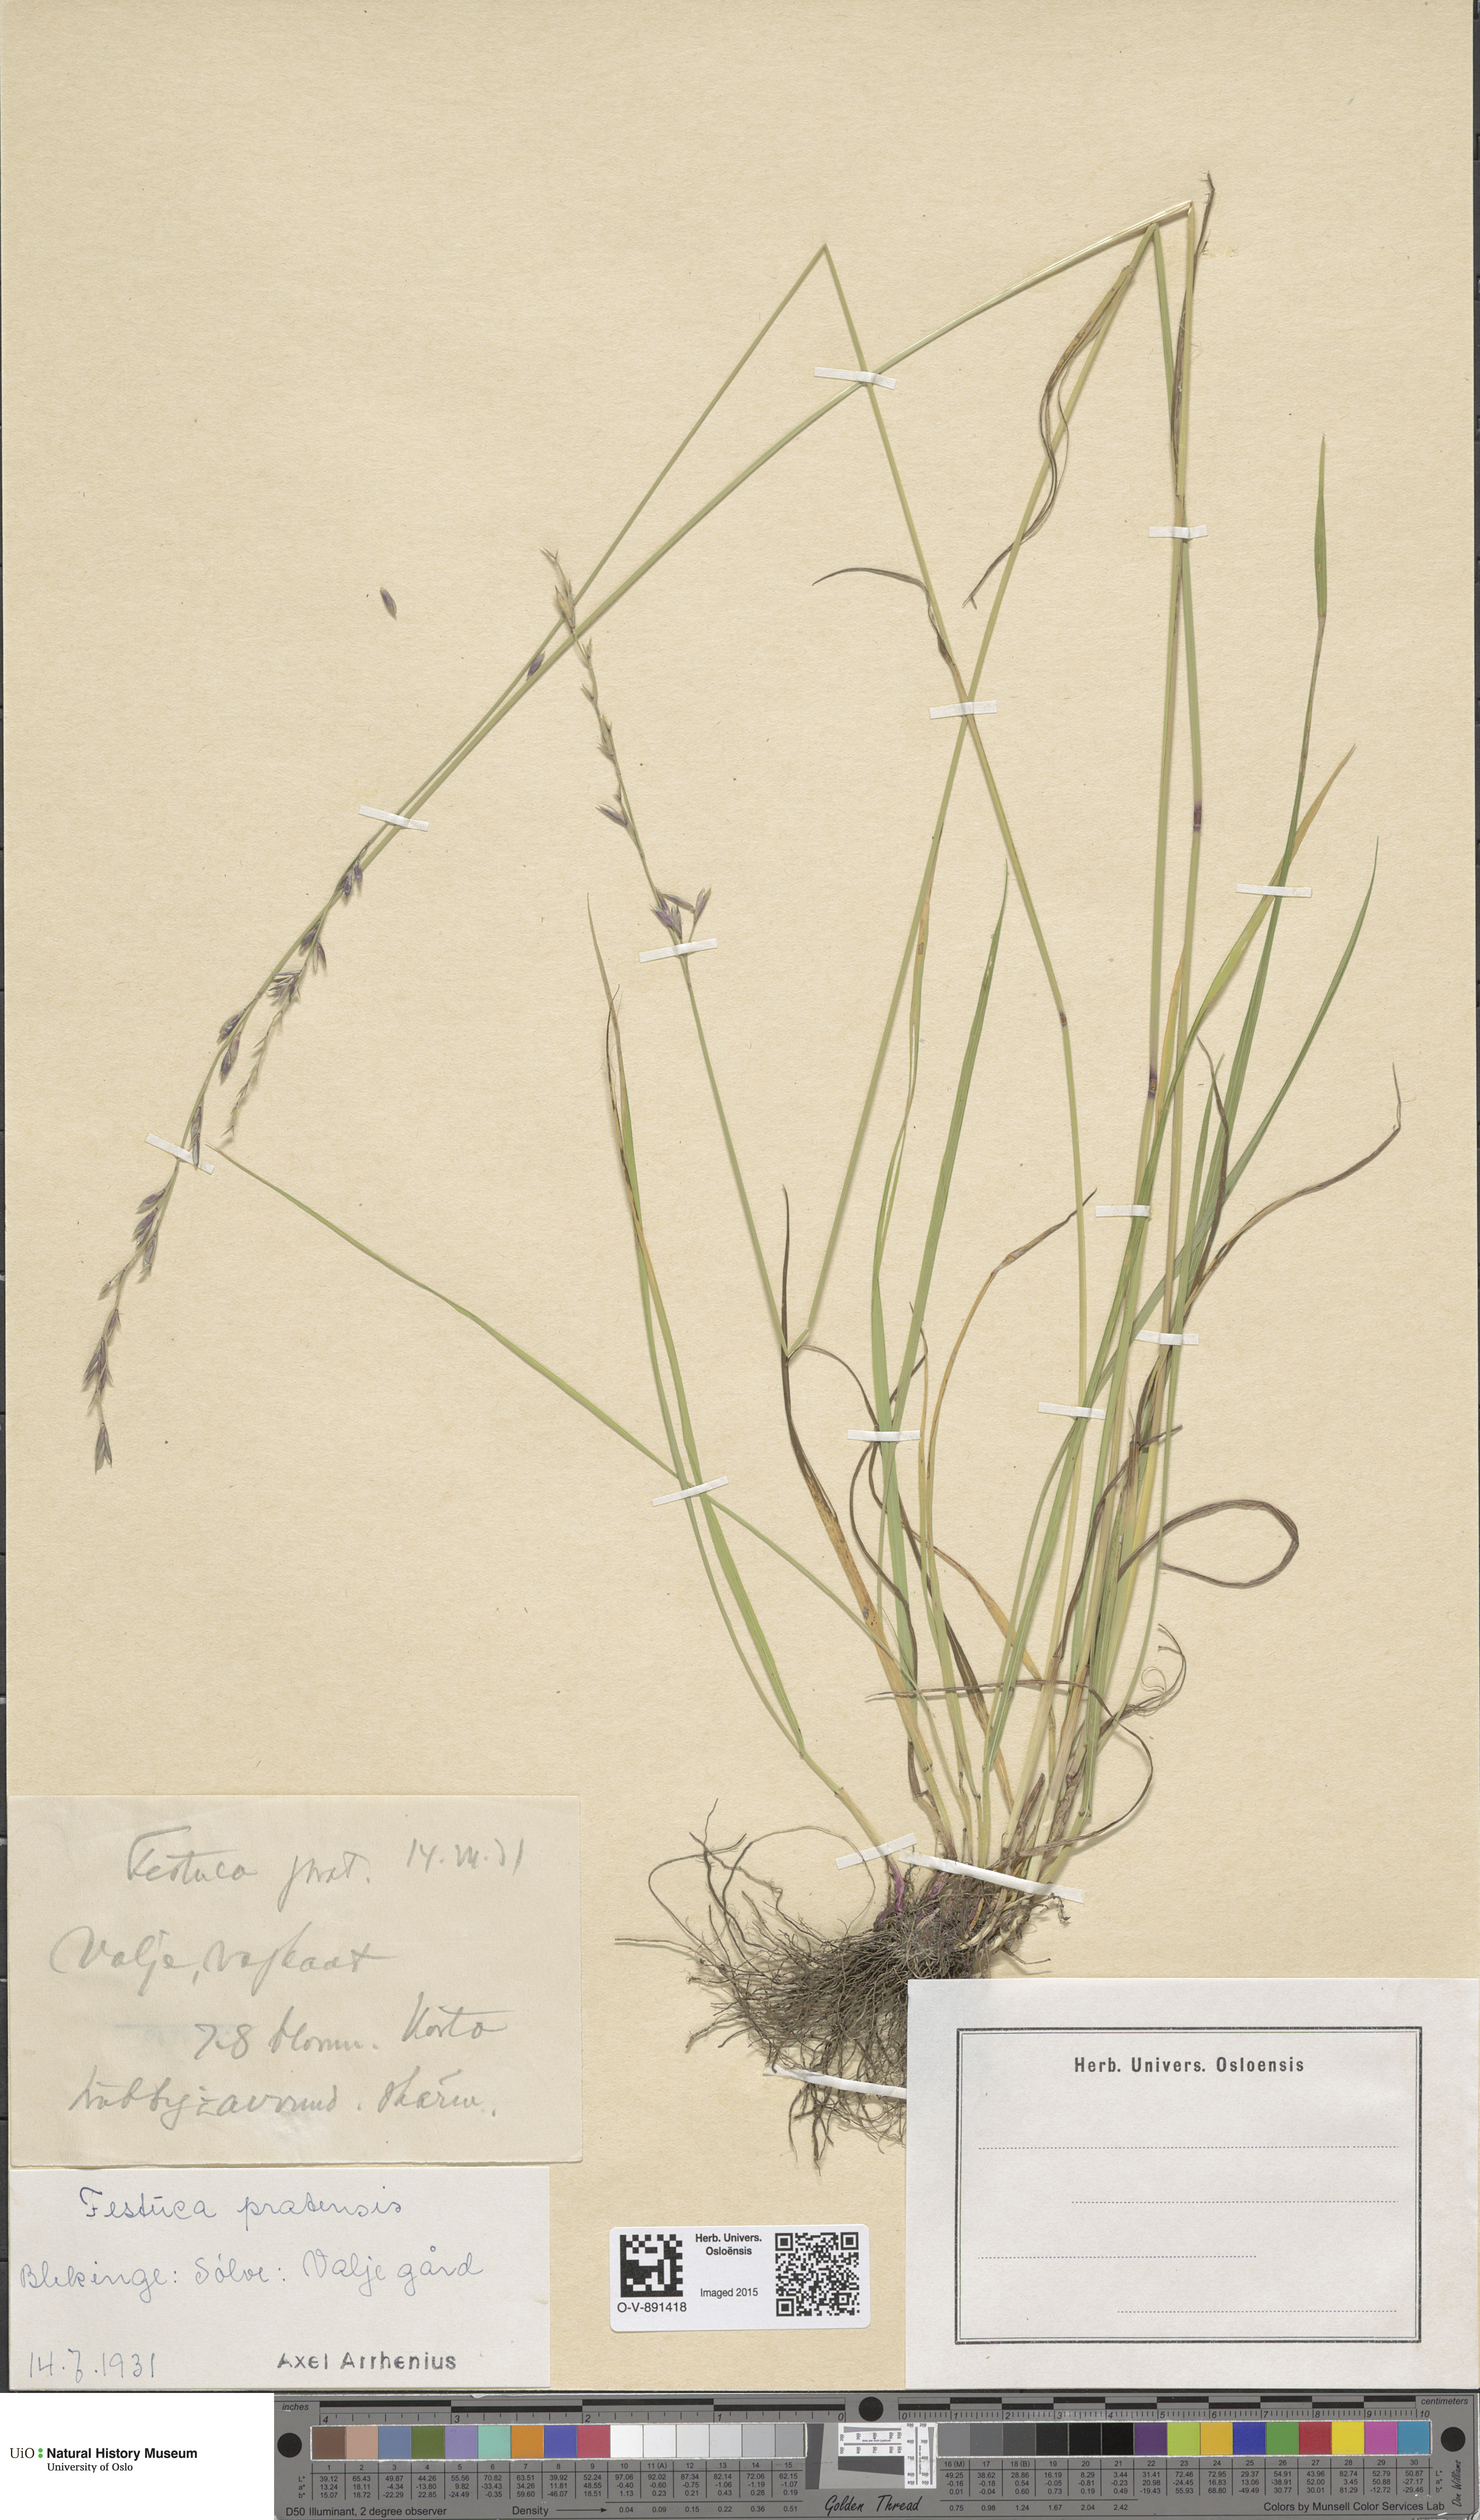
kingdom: Plantae
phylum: Tracheophyta
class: Liliopsida
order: Poales
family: Poaceae
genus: Lolium
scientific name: Lolium pratense
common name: Dover grass
